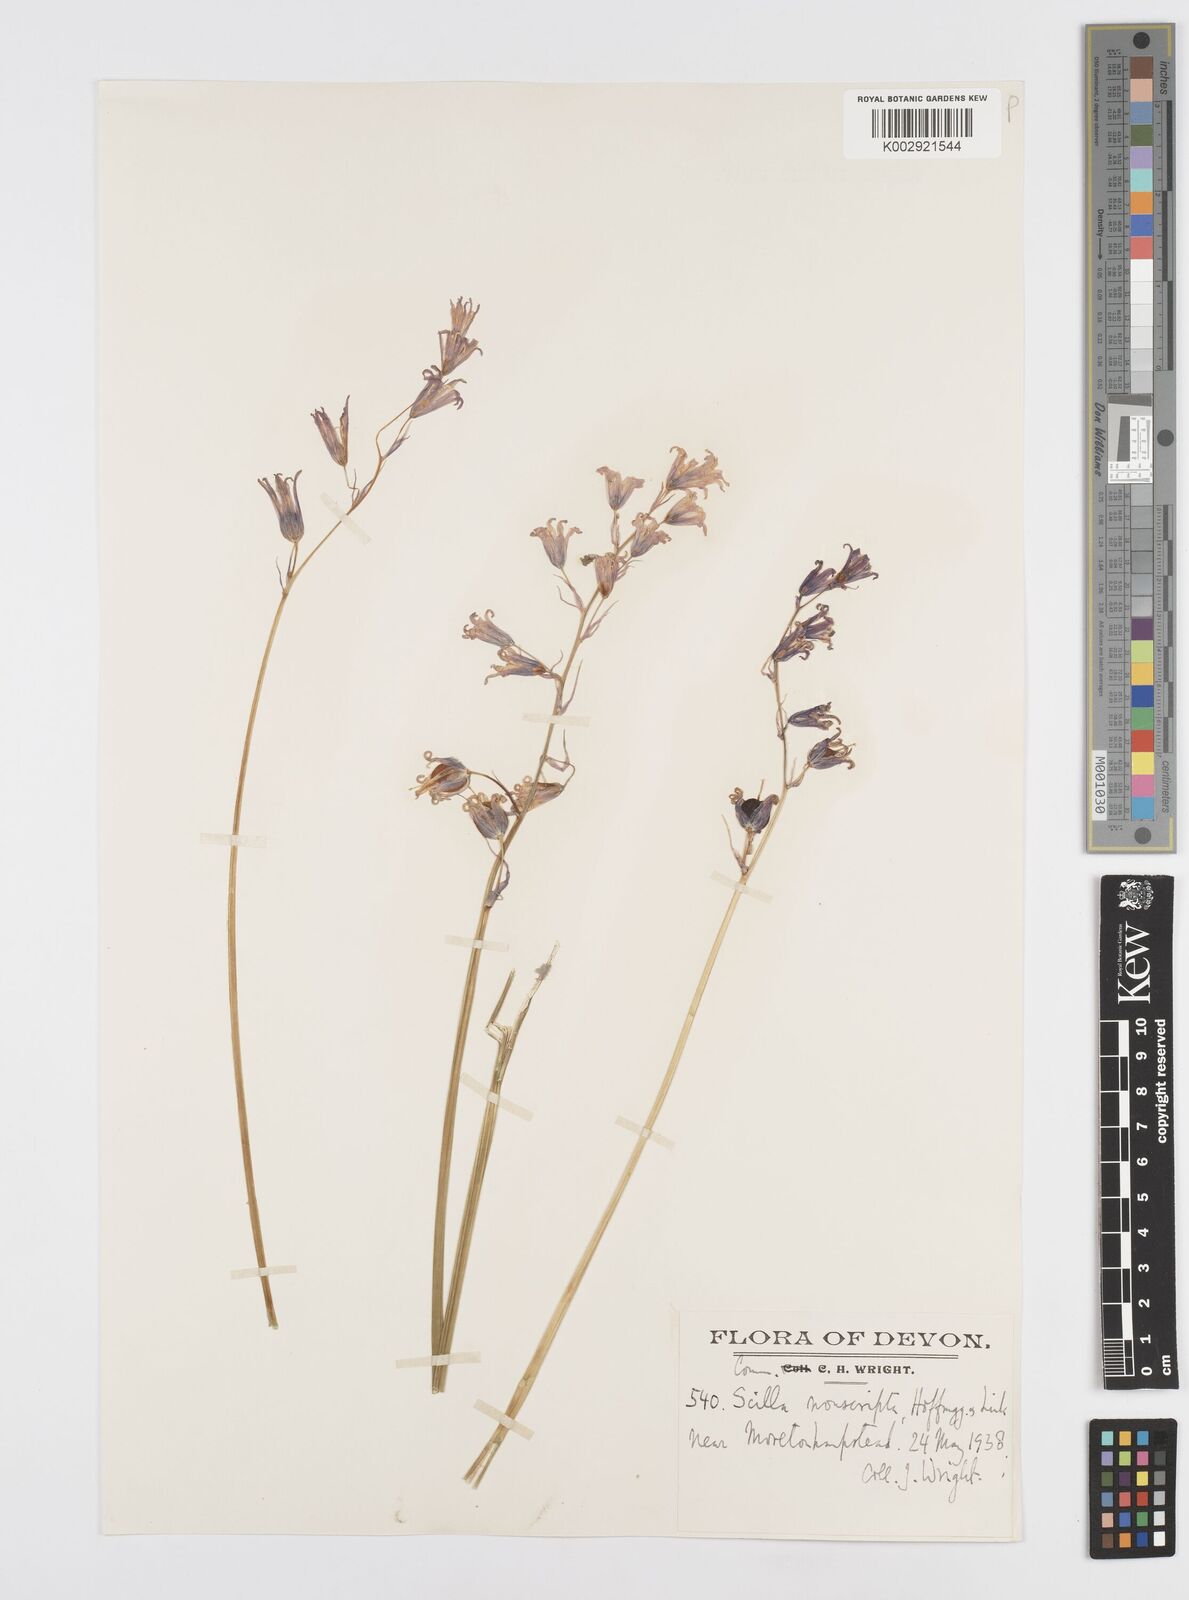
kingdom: Plantae
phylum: Tracheophyta
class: Liliopsida
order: Asparagales
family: Asparagaceae
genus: Hyacinthoides
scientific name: Hyacinthoides non-scripta
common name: Bluebell
